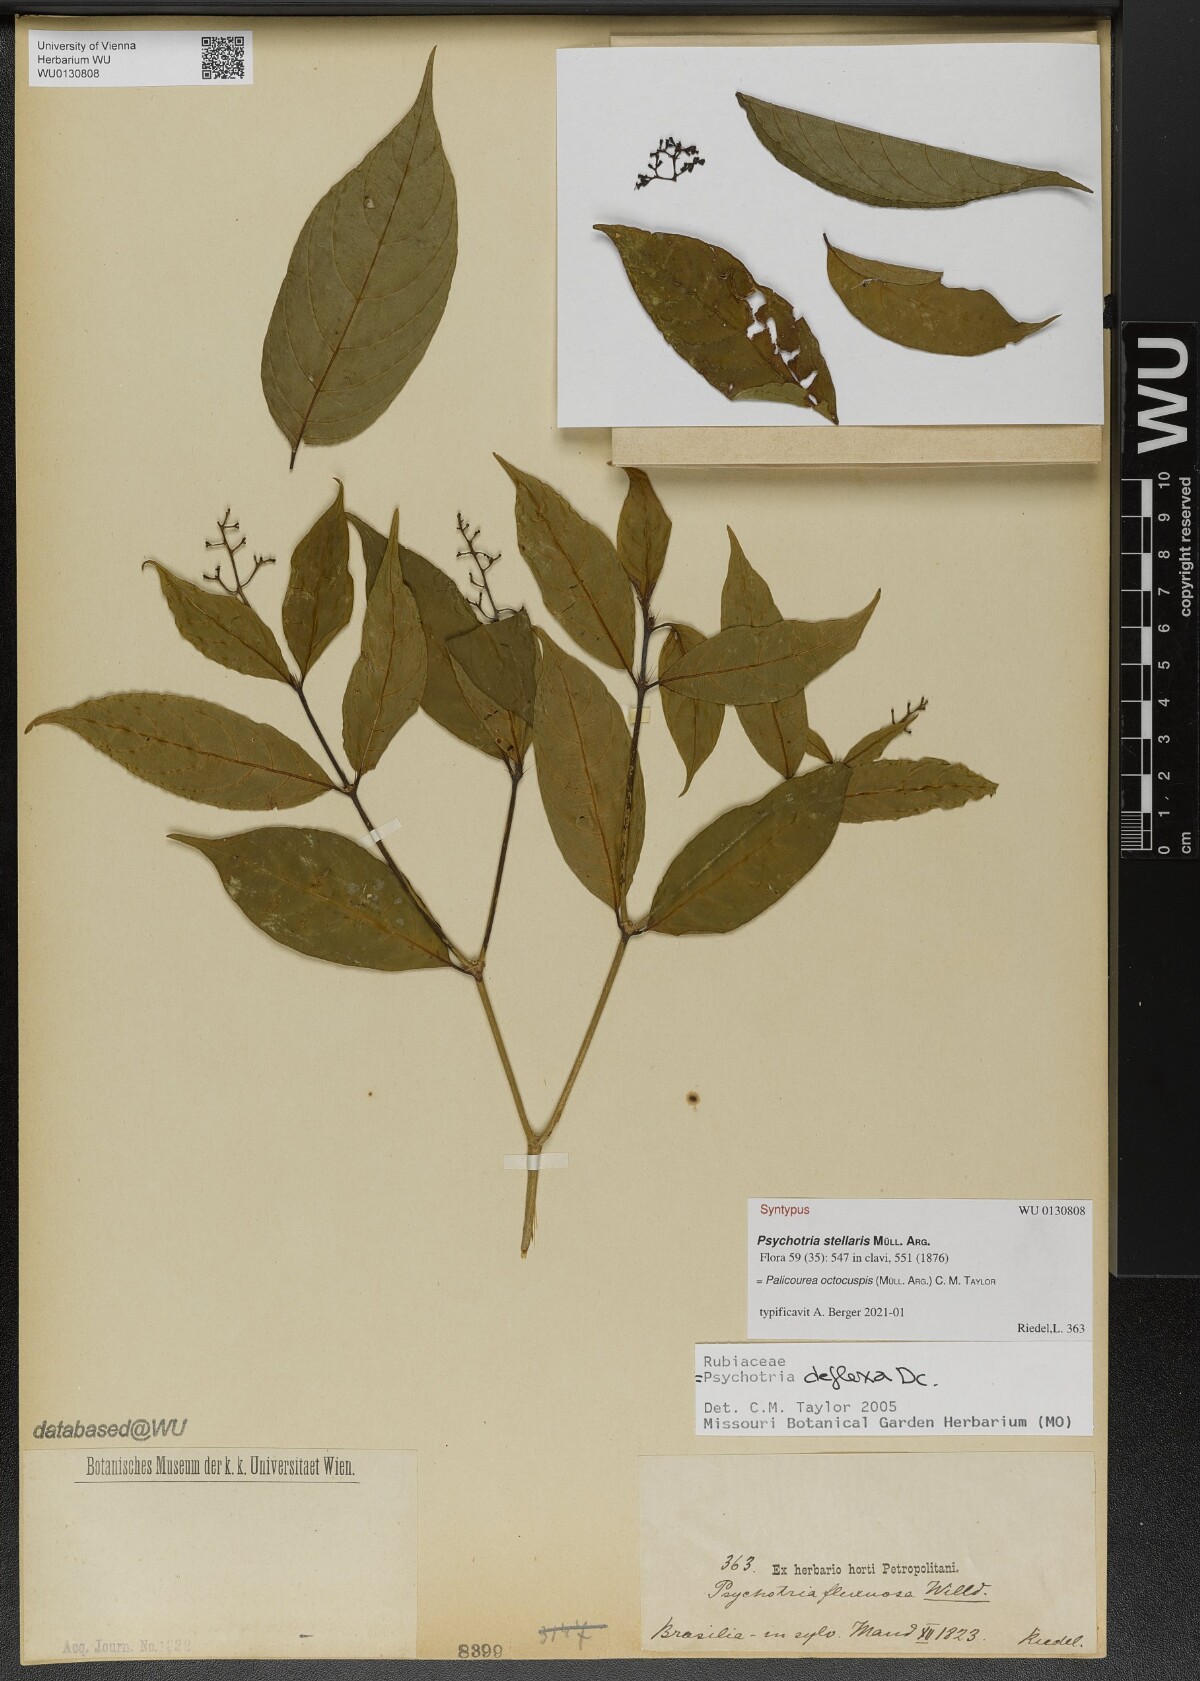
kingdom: Plantae
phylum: Tracheophyta
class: Magnoliopsida
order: Gentianales
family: Rubiaceae
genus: Palicourea
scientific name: Palicourea octocuspis
